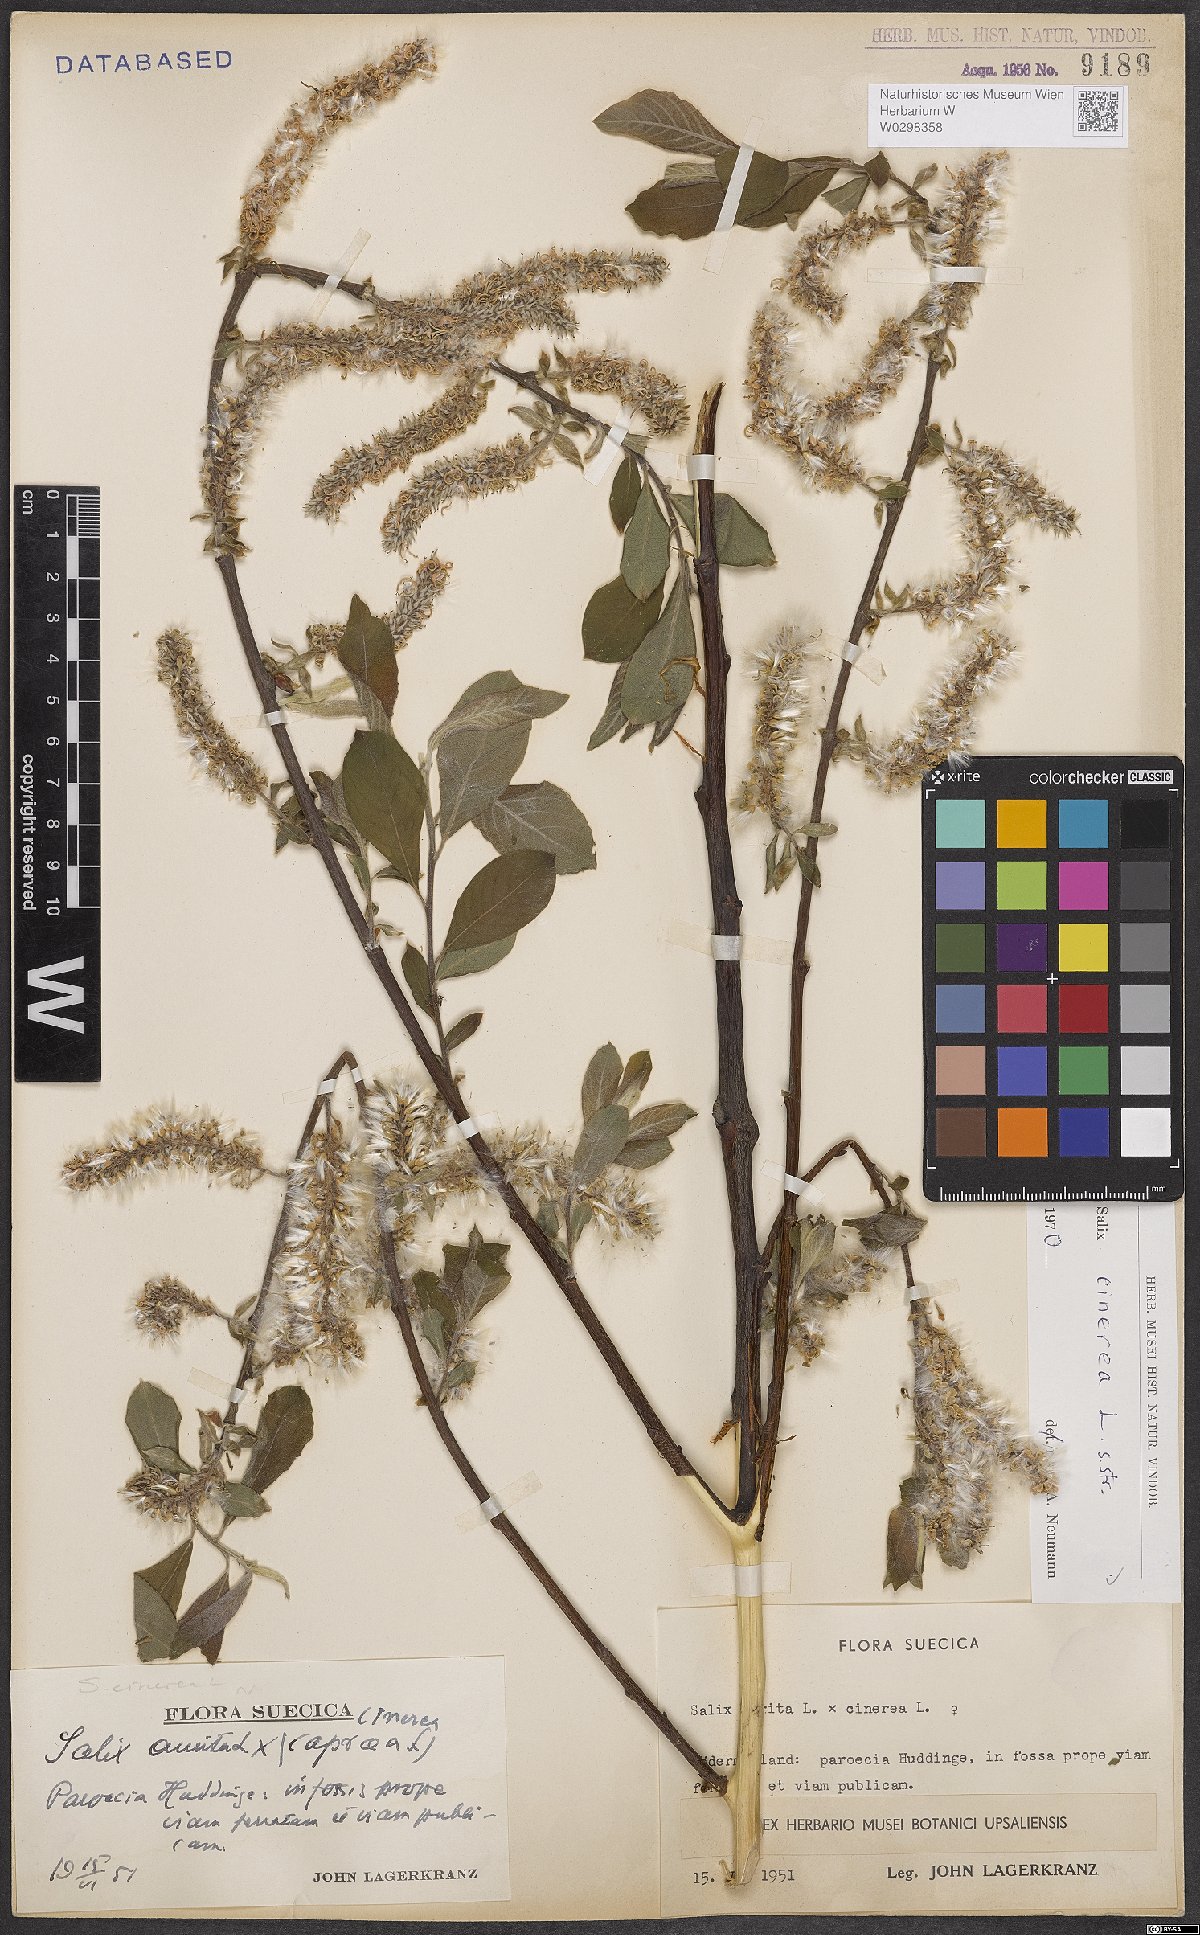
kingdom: Plantae
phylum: Tracheophyta
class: Magnoliopsida
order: Malpighiales
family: Salicaceae
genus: Salix
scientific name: Salix cinerea
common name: Common sallow
